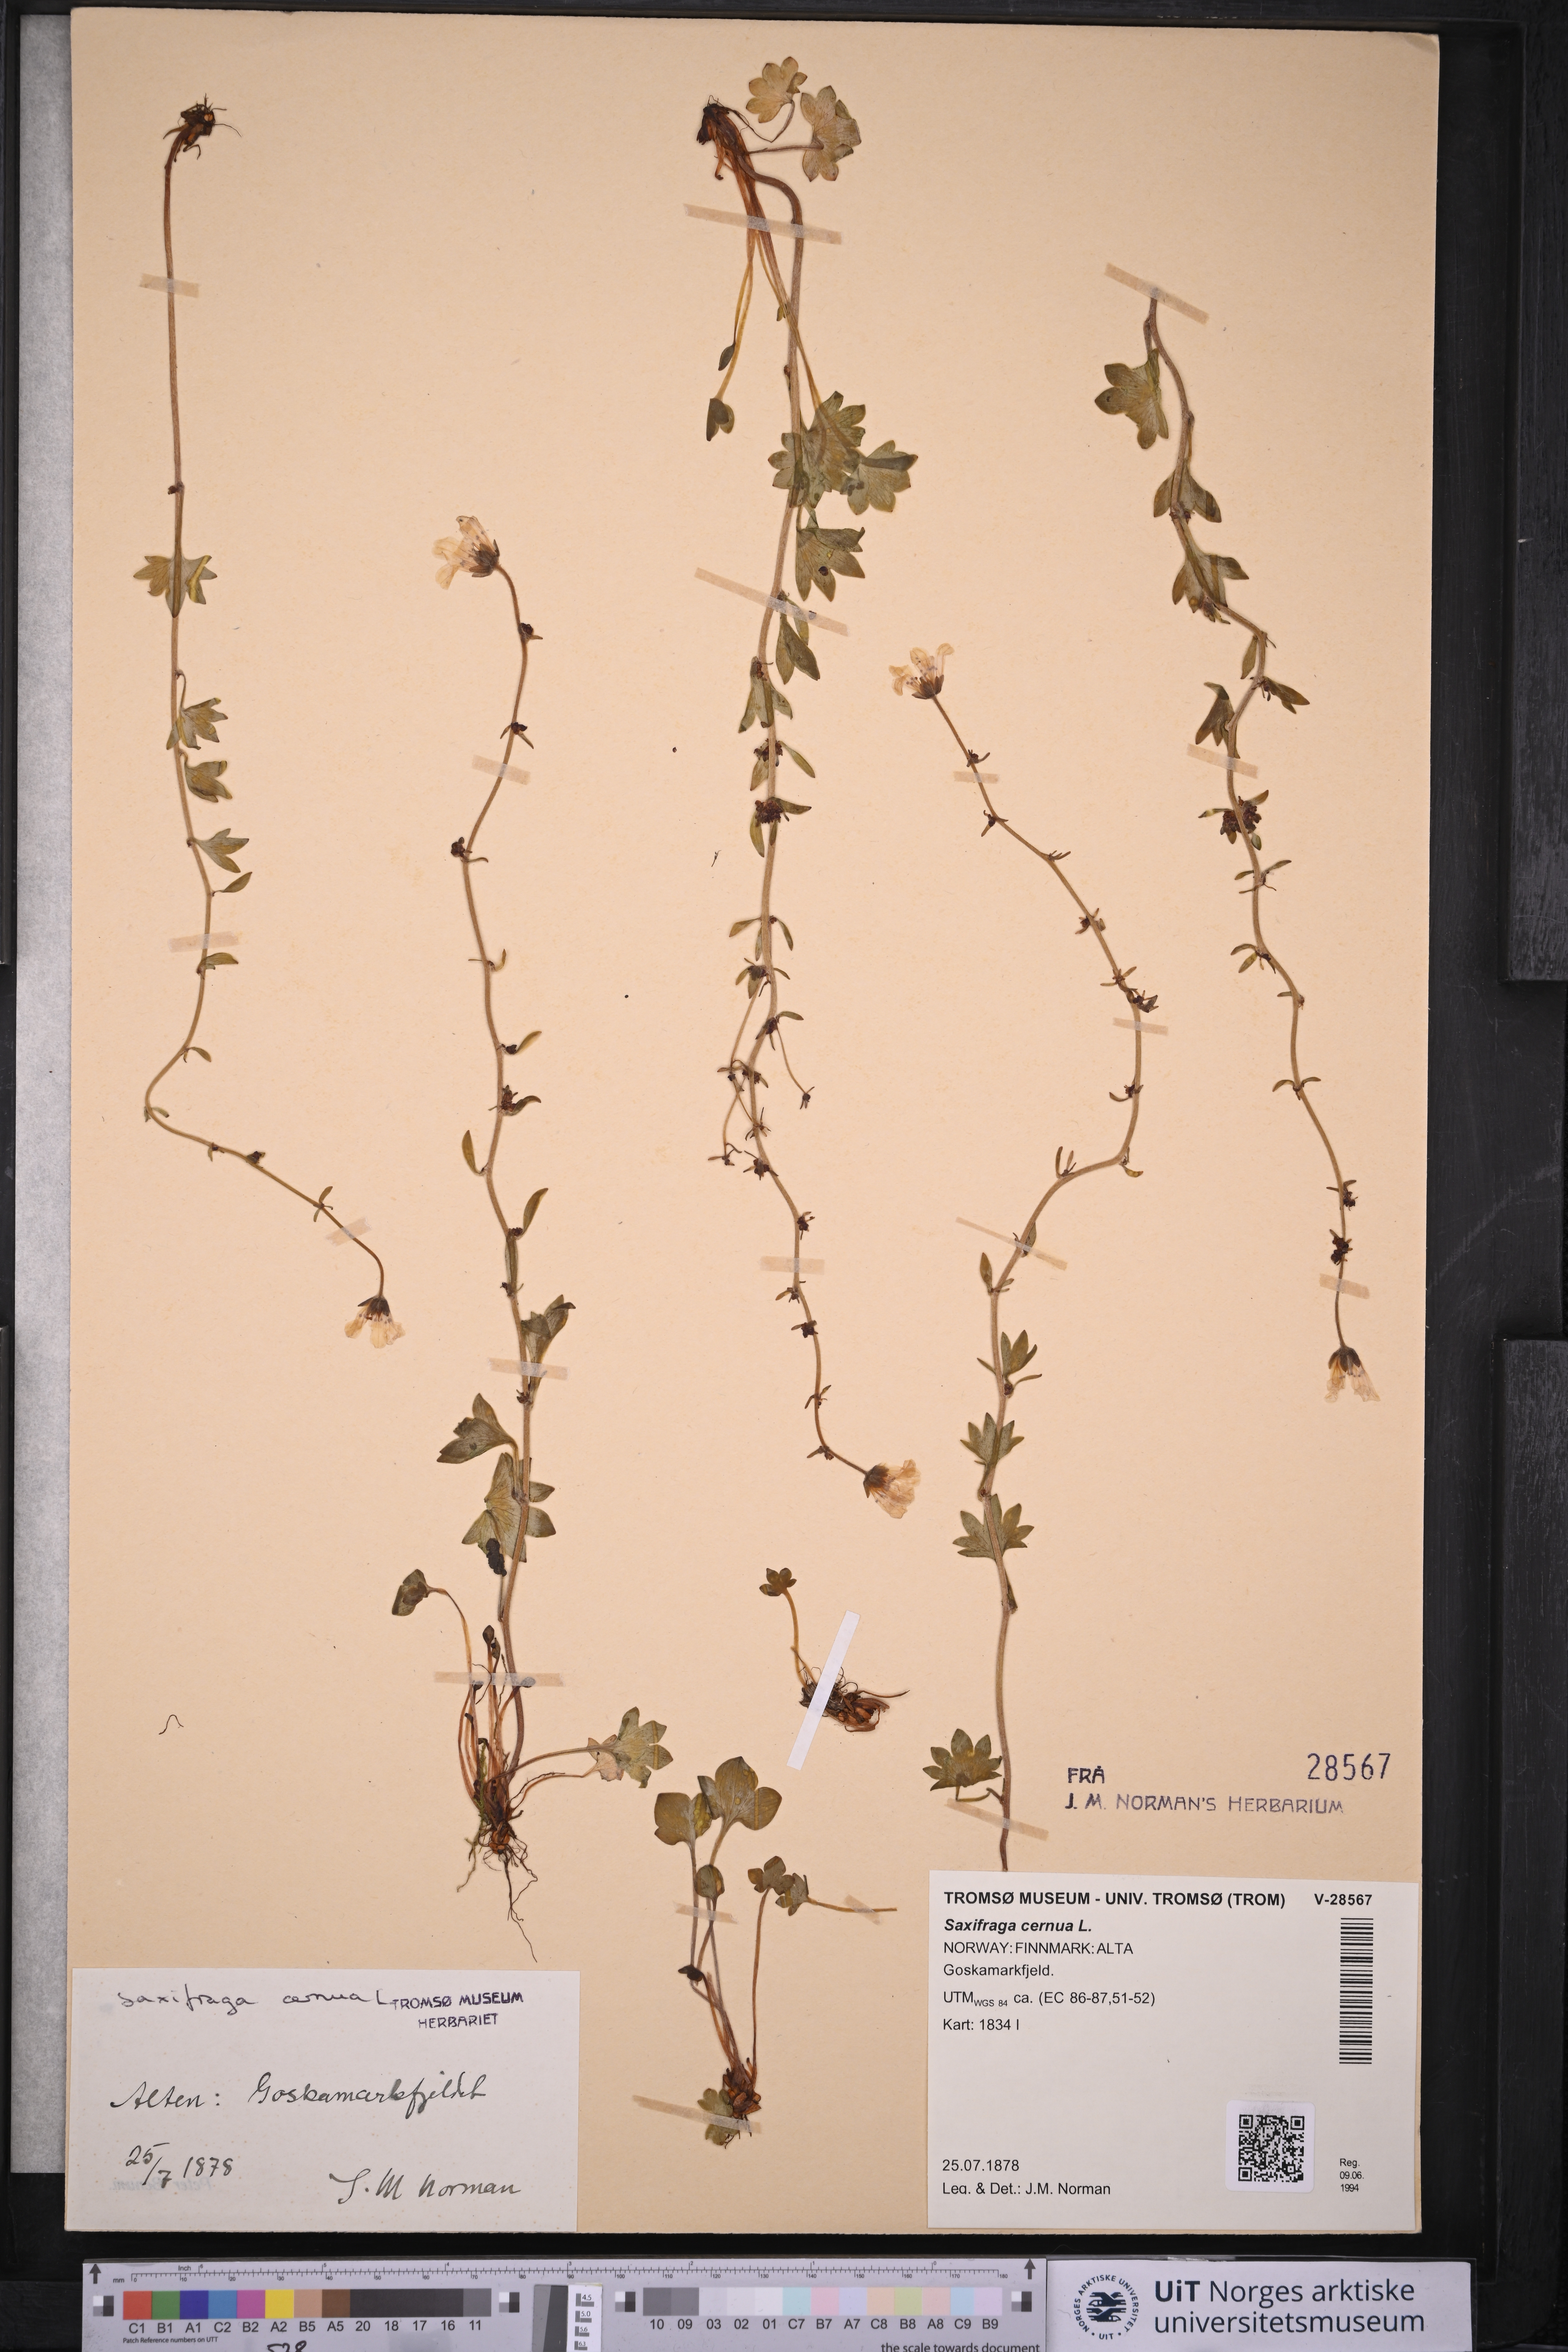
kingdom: Plantae
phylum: Tracheophyta
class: Magnoliopsida
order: Saxifragales
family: Saxifragaceae
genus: Saxifraga
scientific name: Saxifraga cernua
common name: Drooping saxifrage
